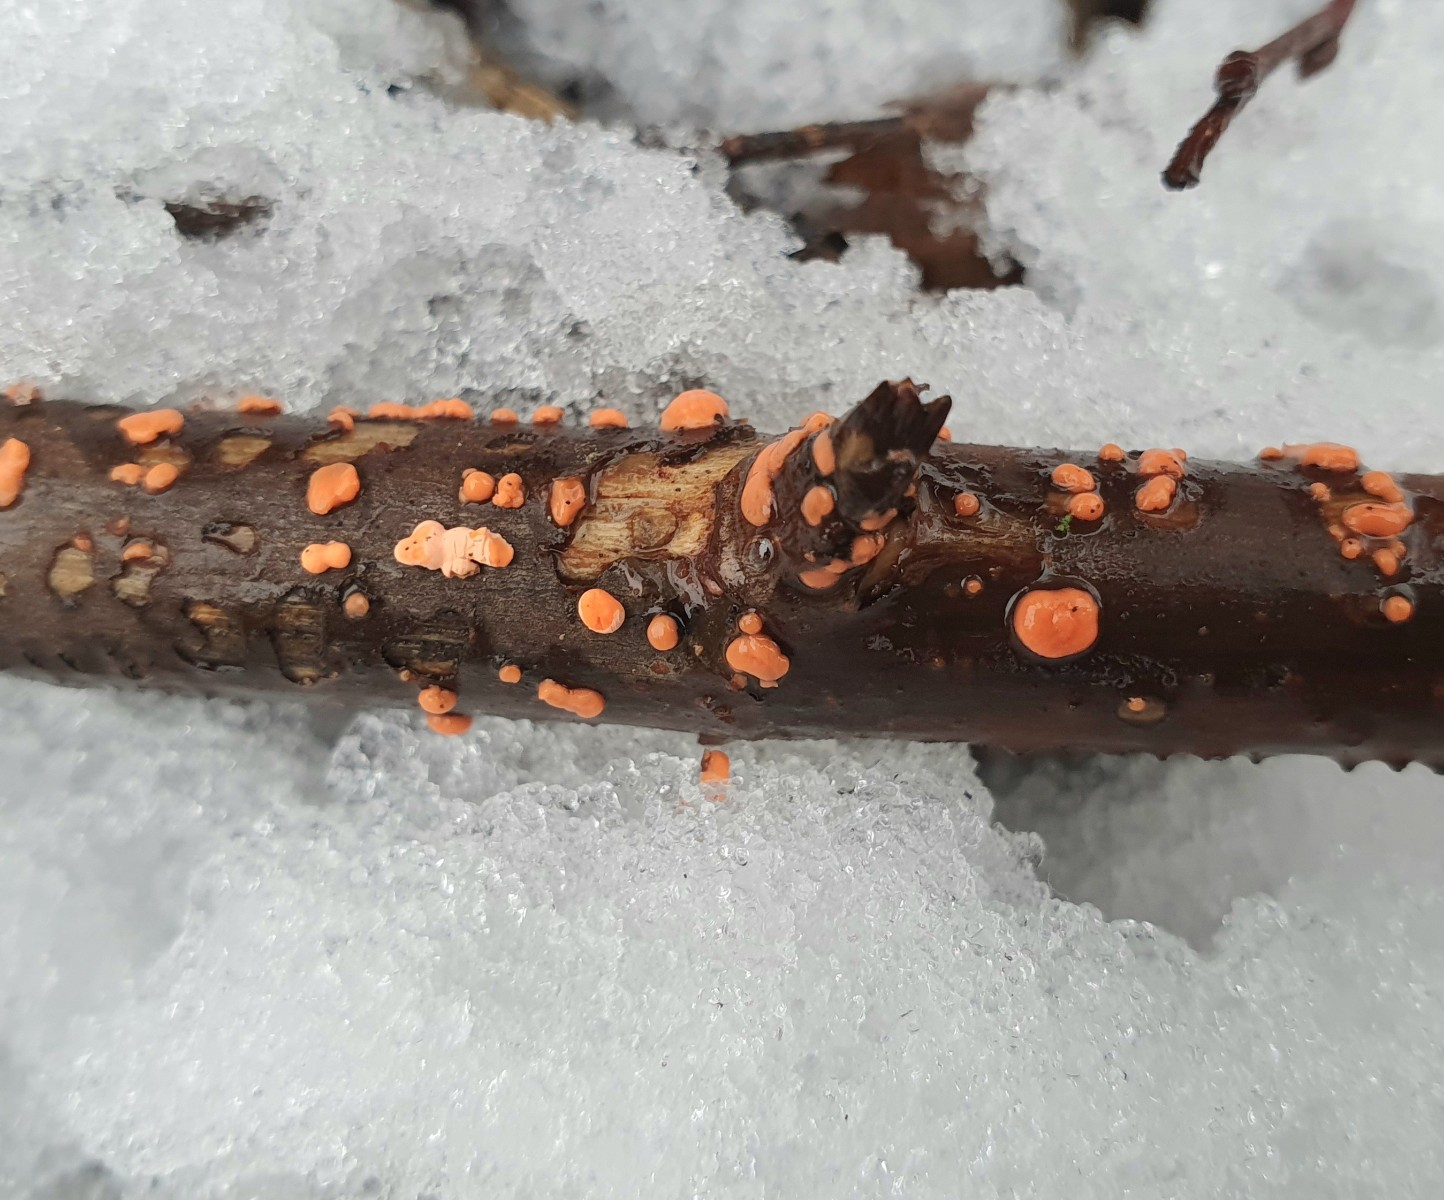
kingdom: Fungi
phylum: Ascomycota
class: Sordariomycetes
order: Hypocreales
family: Nectriaceae
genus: Nectria
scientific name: Nectria cinnabarina
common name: almindelig cinnobersvamp
